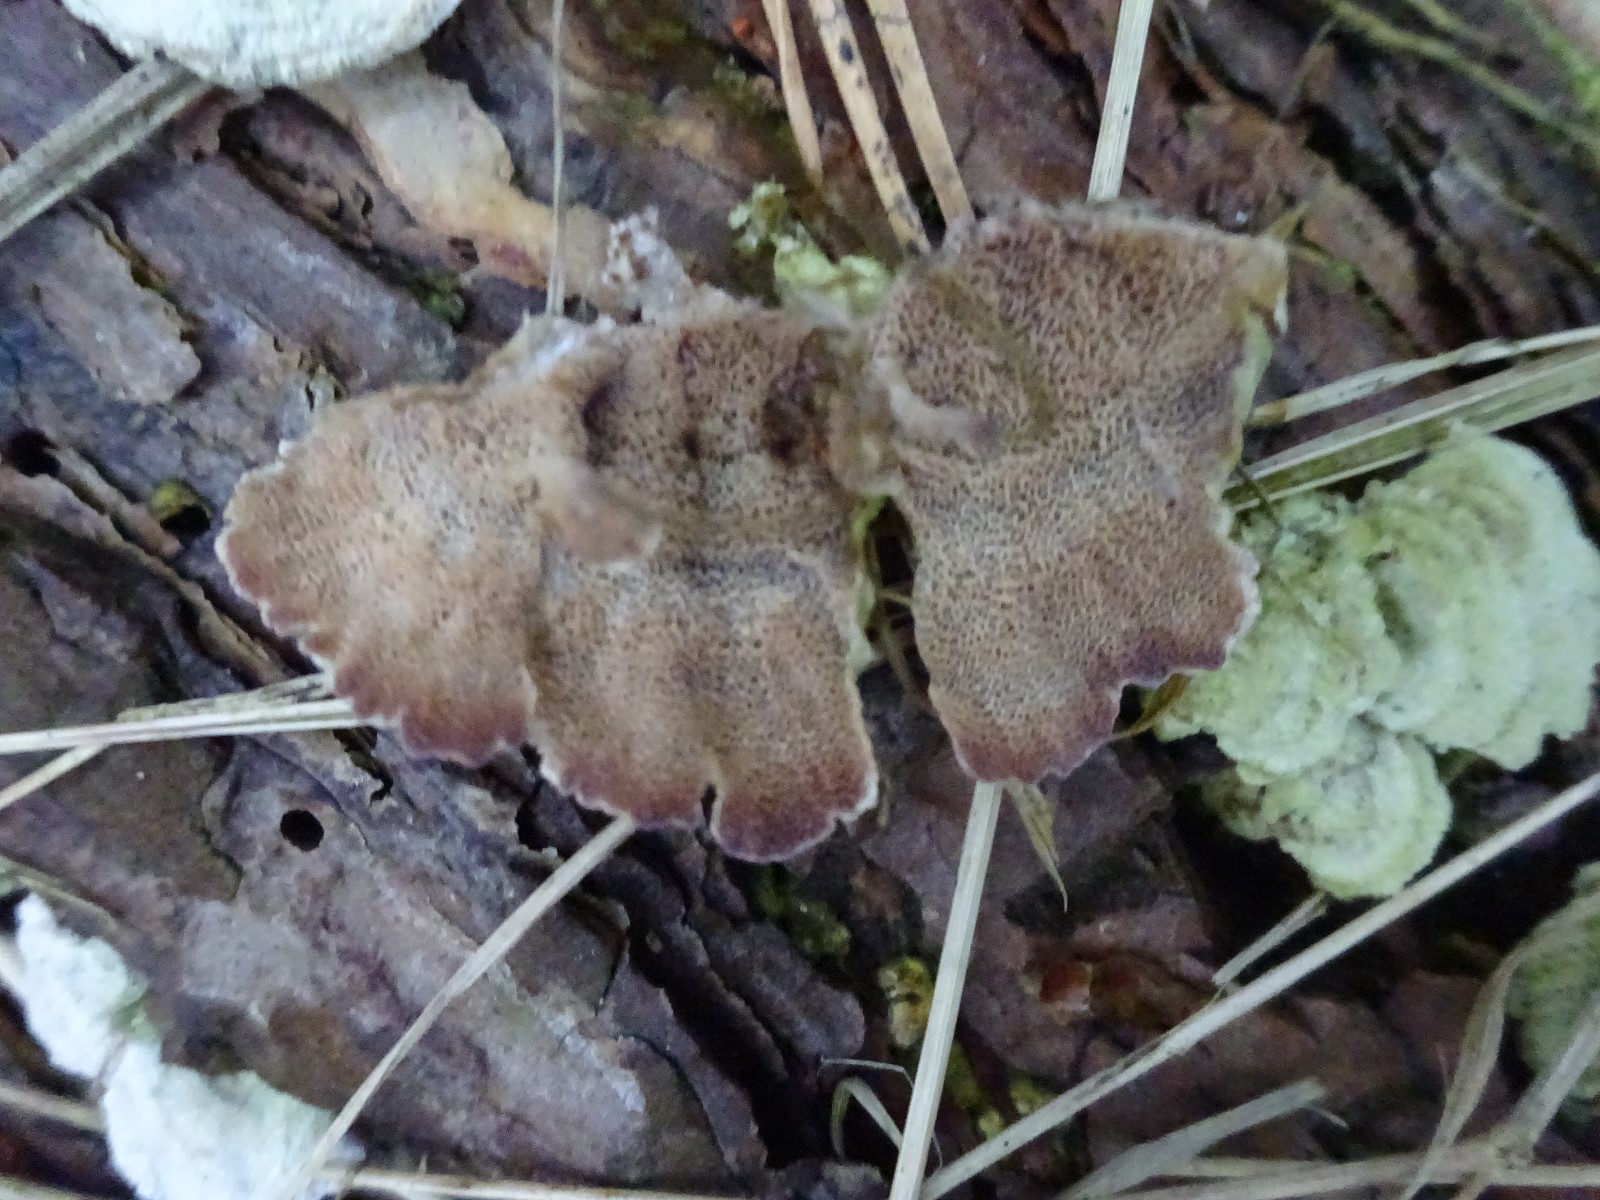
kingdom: Fungi
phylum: Basidiomycota
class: Agaricomycetes
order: Hymenochaetales
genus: Trichaptum
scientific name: Trichaptum abietinum
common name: almindelig violporesvamp
